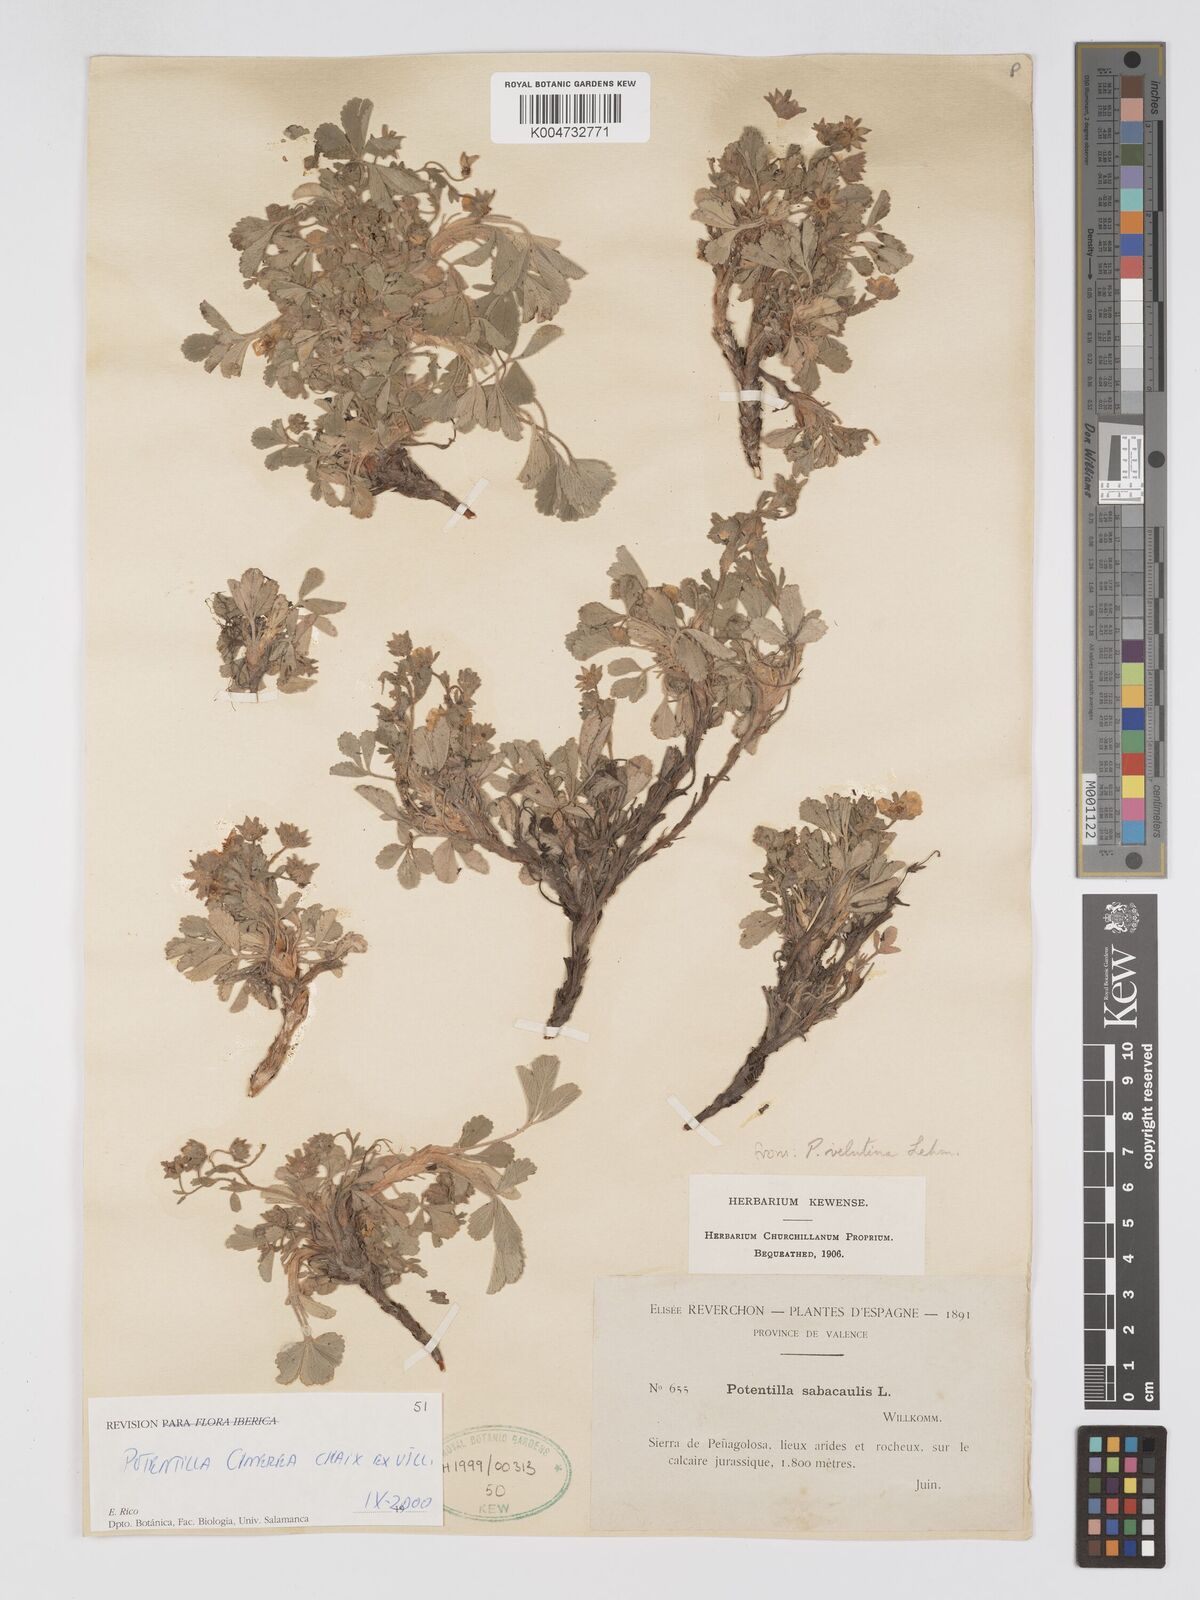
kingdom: Plantae
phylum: Tracheophyta
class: Magnoliopsida
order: Rosales
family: Rosaceae
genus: Potentilla
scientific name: Potentilla
